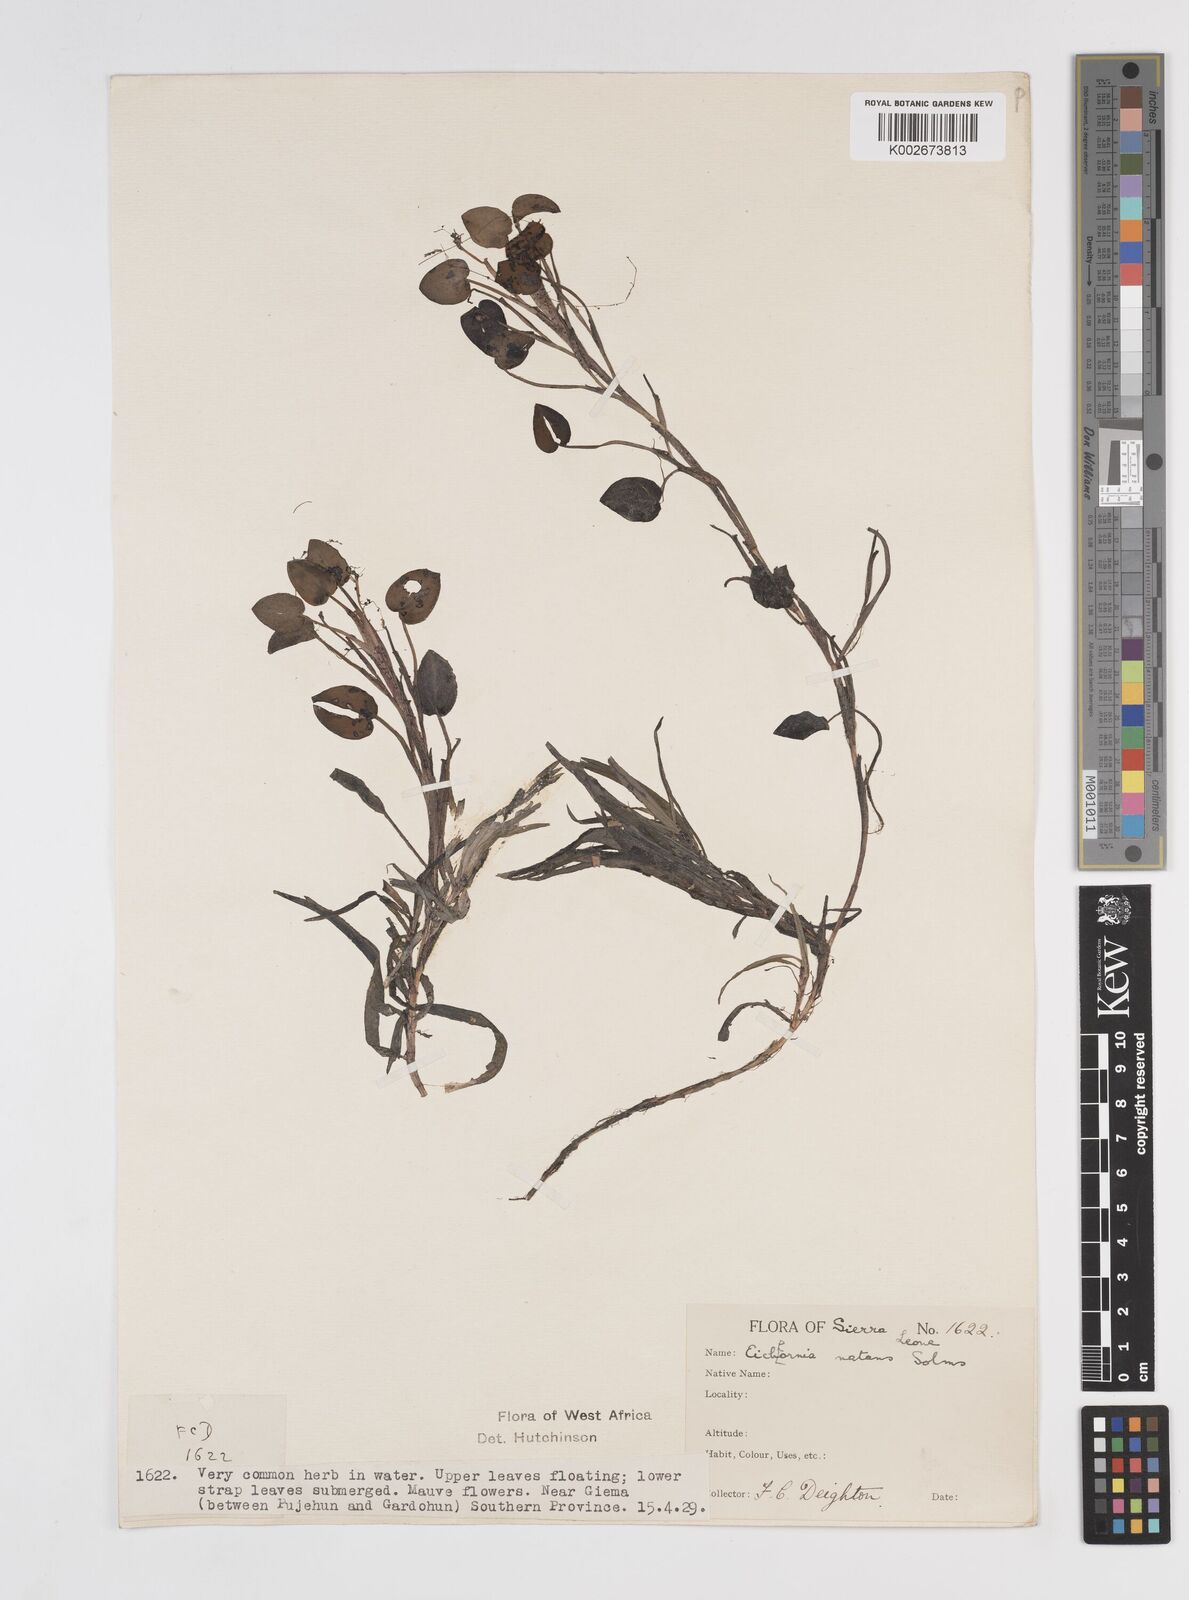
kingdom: Plantae
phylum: Tracheophyta
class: Liliopsida
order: Commelinales
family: Pontederiaceae
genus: Pontederia
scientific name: Pontederia diversifolia
